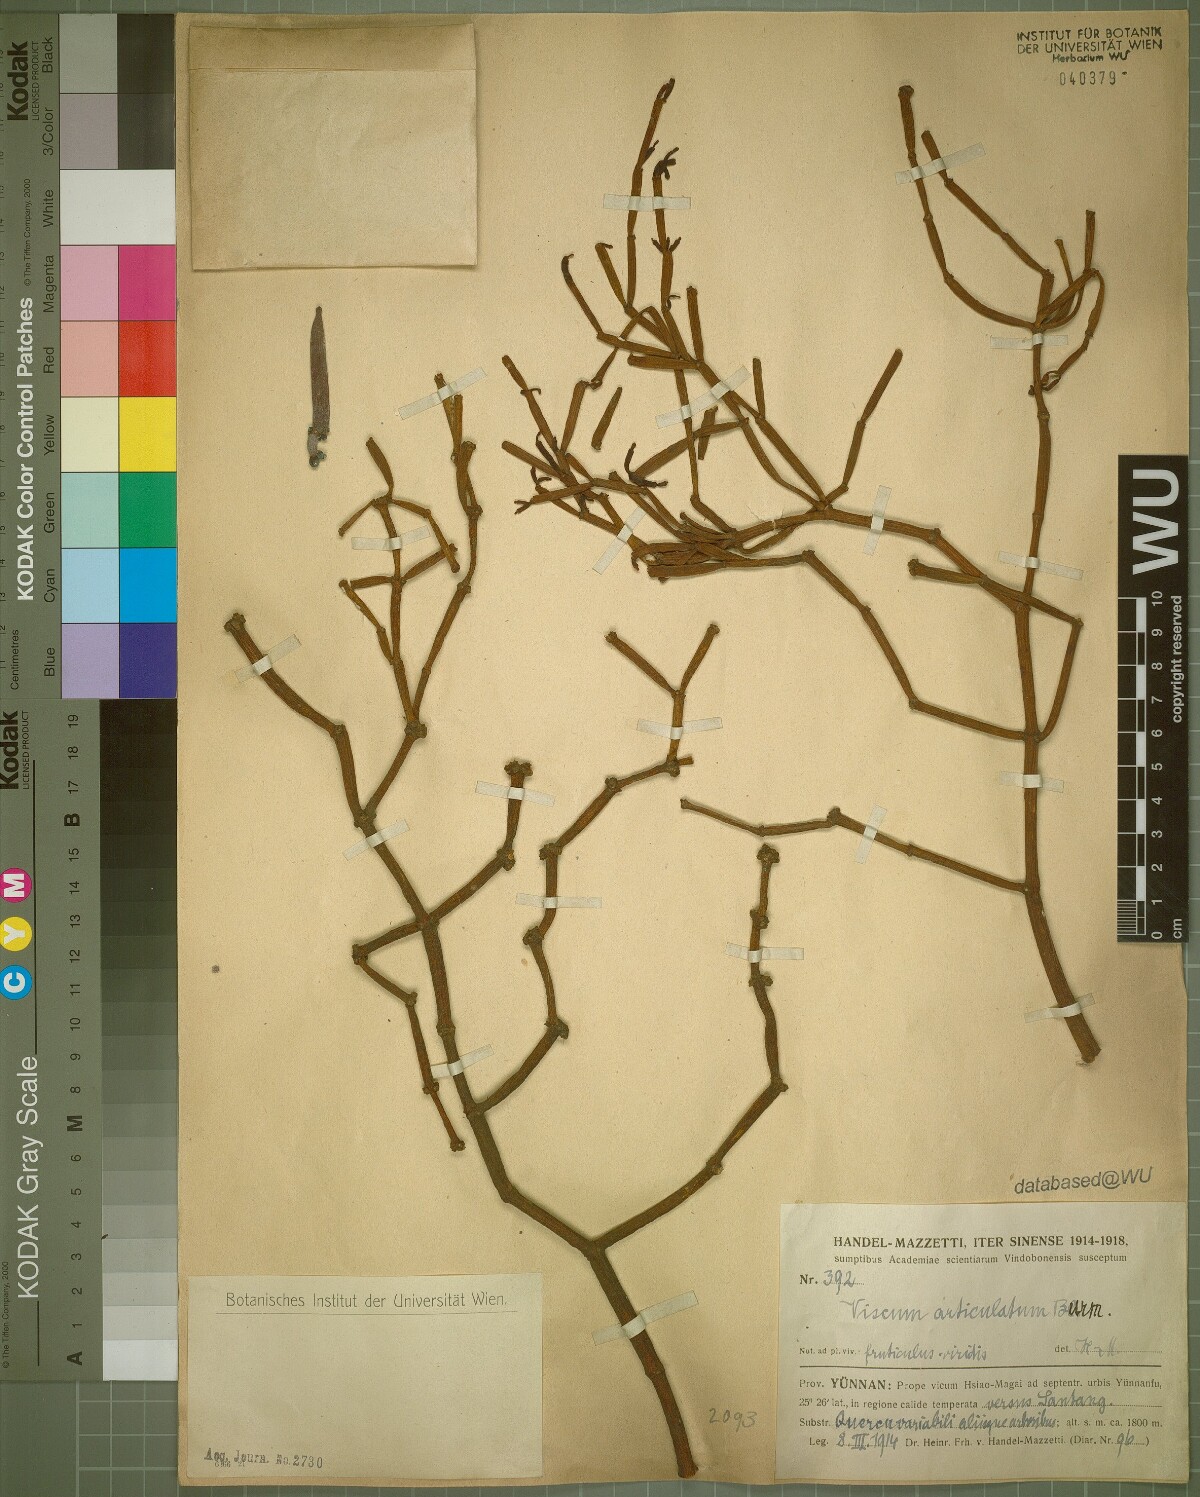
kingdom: Plantae
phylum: Tracheophyta
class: Magnoliopsida
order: Santalales
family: Viscaceae
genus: Viscum
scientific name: Viscum articulatum
